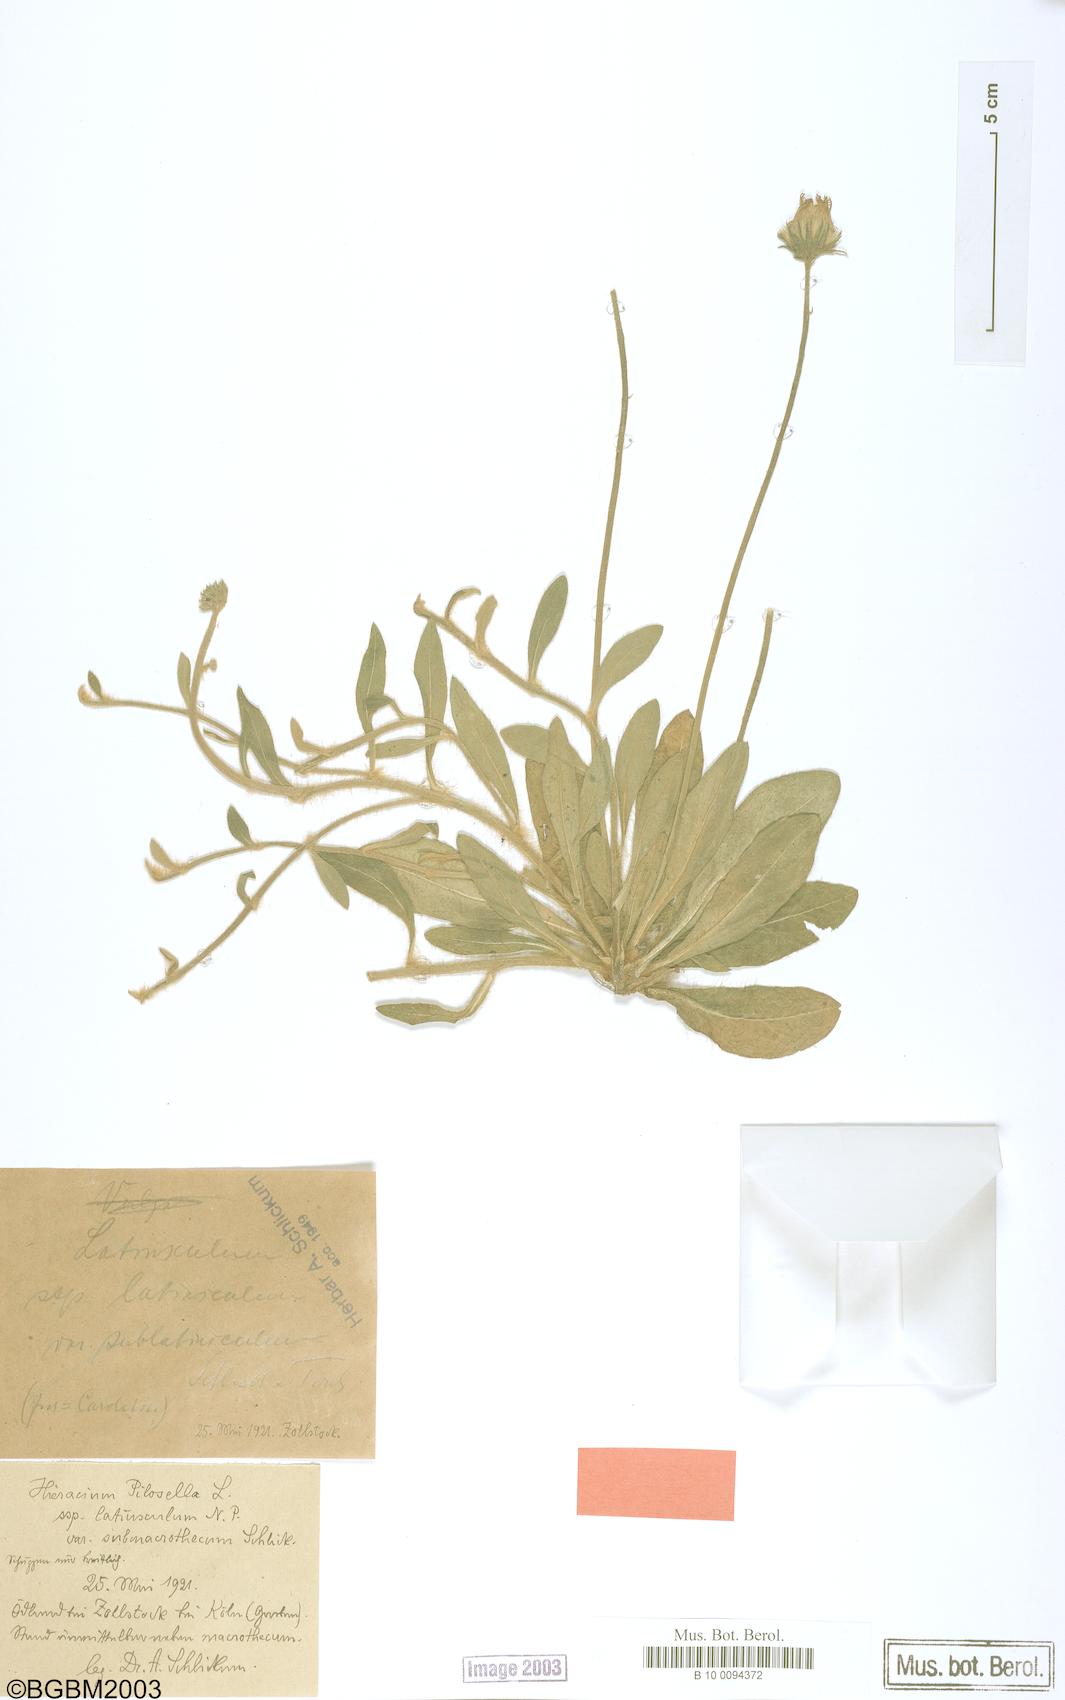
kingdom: Plantae
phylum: Tracheophyta
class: Magnoliopsida
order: Asterales
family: Asteraceae
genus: Pilosella
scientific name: Pilosella officinarum
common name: Mouse-ear hawkweed
